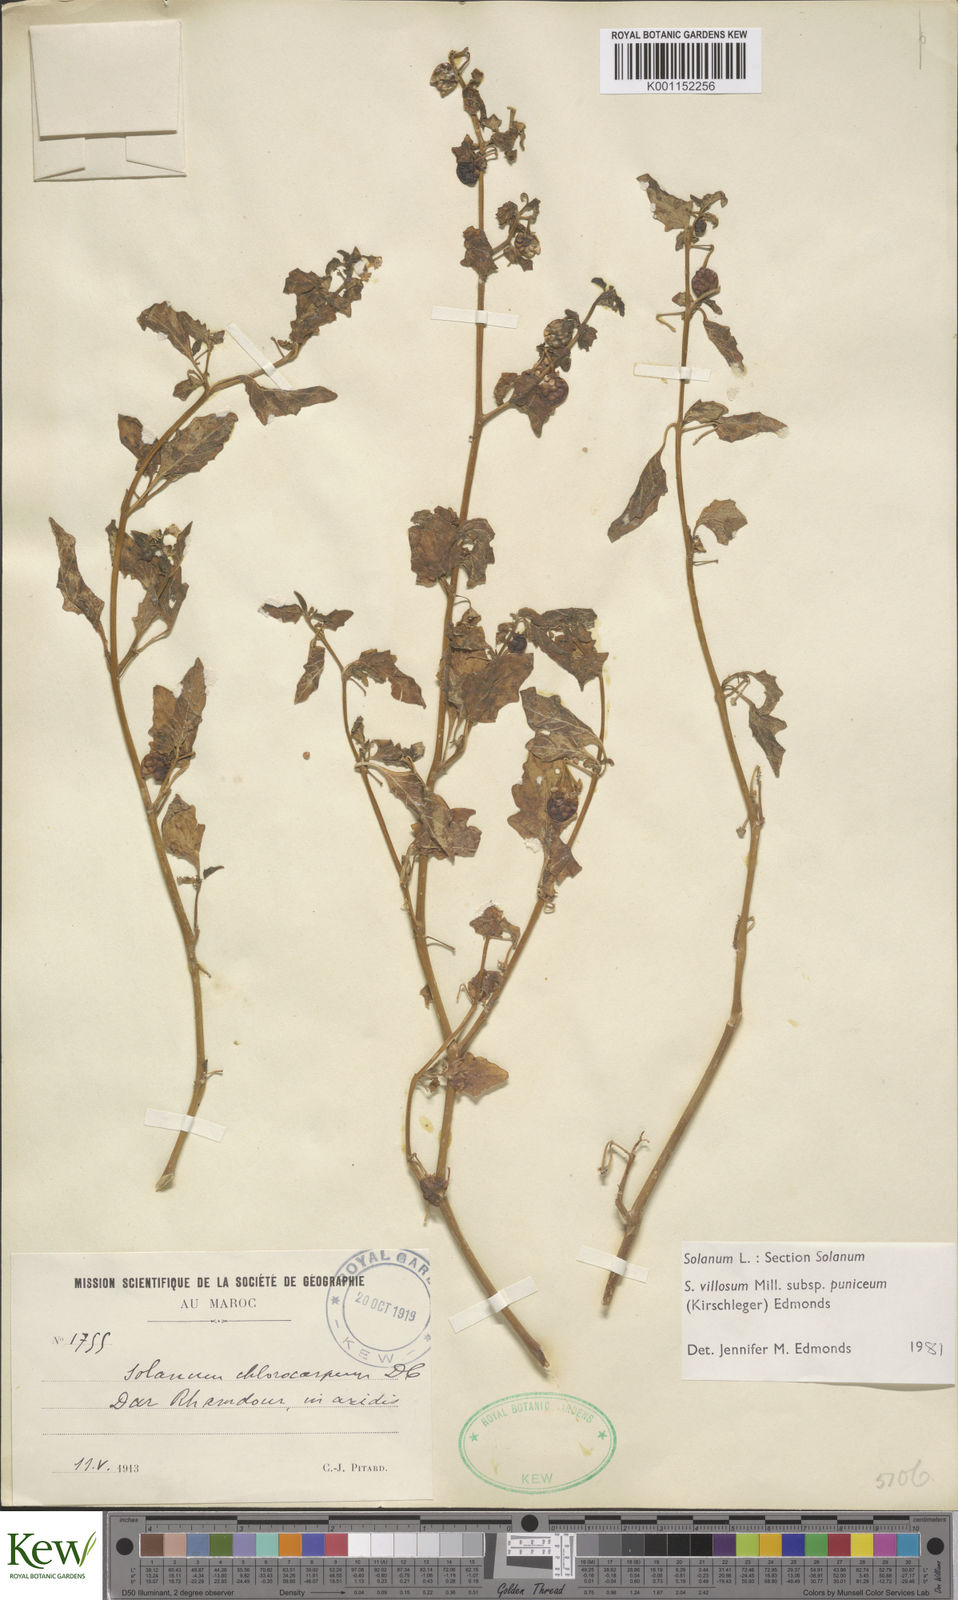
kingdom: Plantae
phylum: Tracheophyta
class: Magnoliopsida
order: Solanales
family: Solanaceae
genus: Solanum
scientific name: Solanum villosum
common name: Red nightshade
